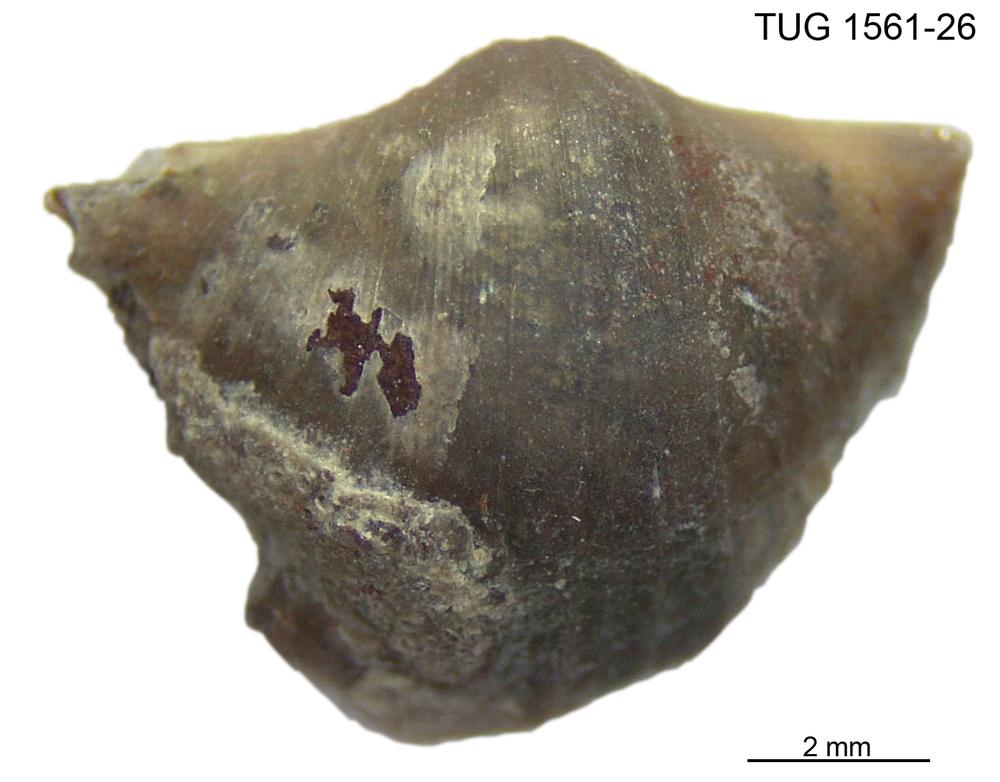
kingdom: Animalia
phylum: Brachiopoda
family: Oldhaminidae
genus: Eoplectodonta
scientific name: Eoplectodonta
